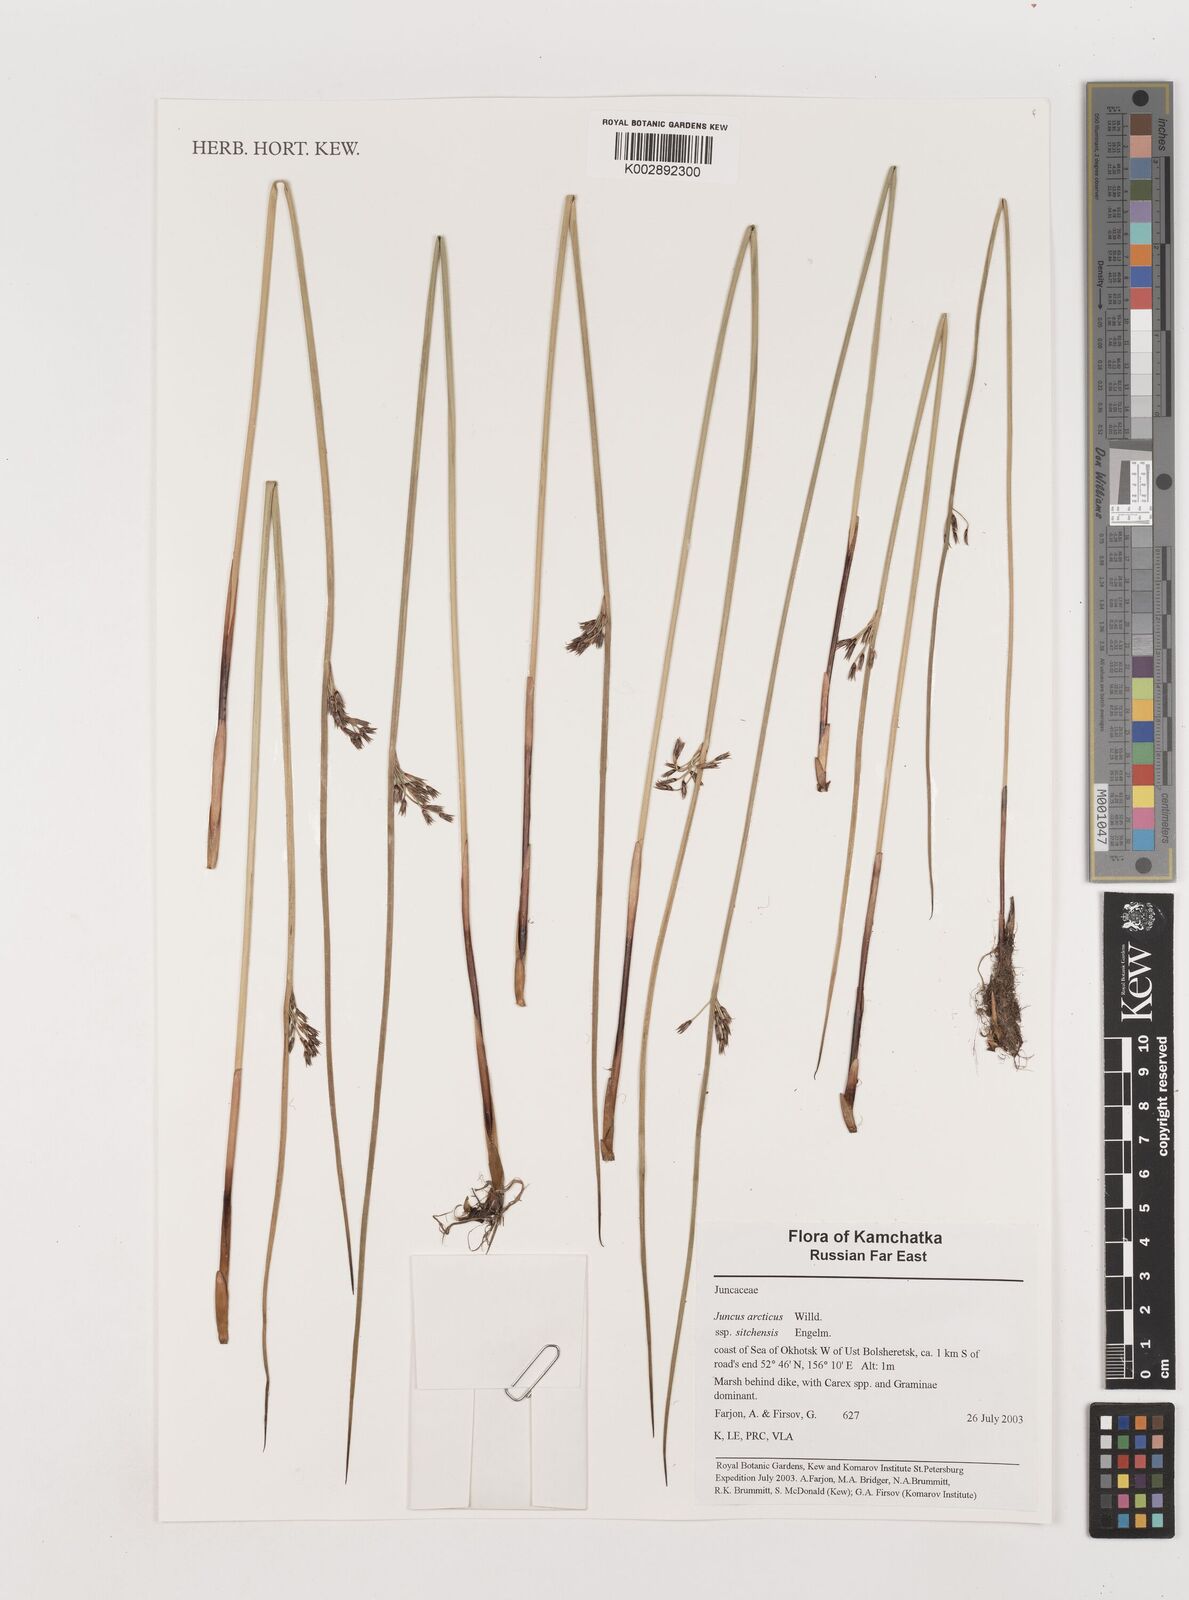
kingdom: Plantae
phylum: Tracheophyta
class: Liliopsida
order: Poales
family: Juncaceae
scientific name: Juncaceae
